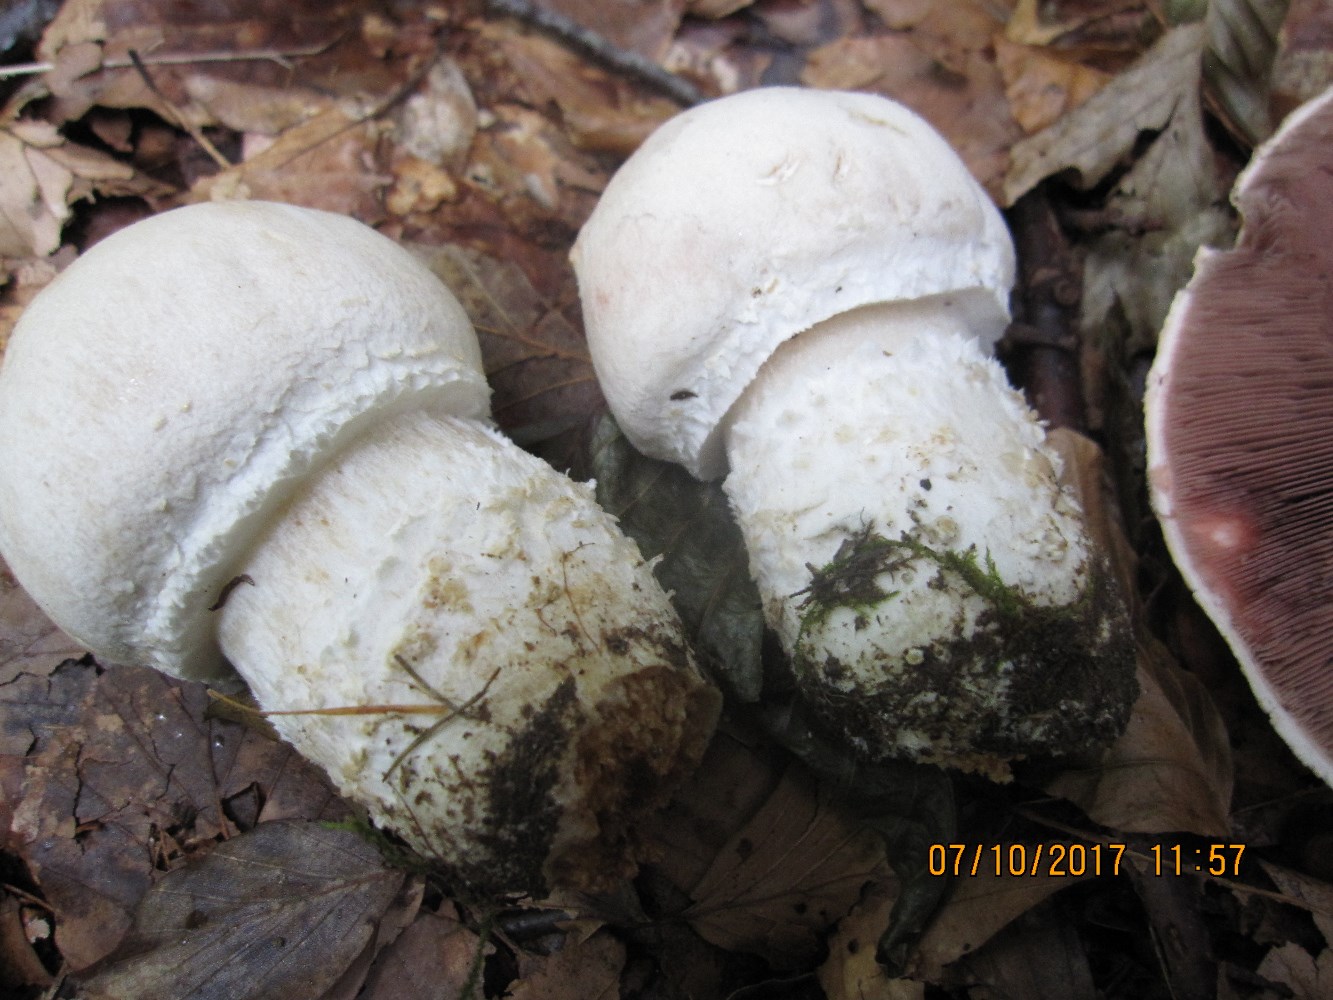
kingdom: Fungi
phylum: Basidiomycota
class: Agaricomycetes
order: Agaricales
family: Agaricaceae
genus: Agaricus
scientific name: Agaricus crocodilinus
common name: landsby-champignon
